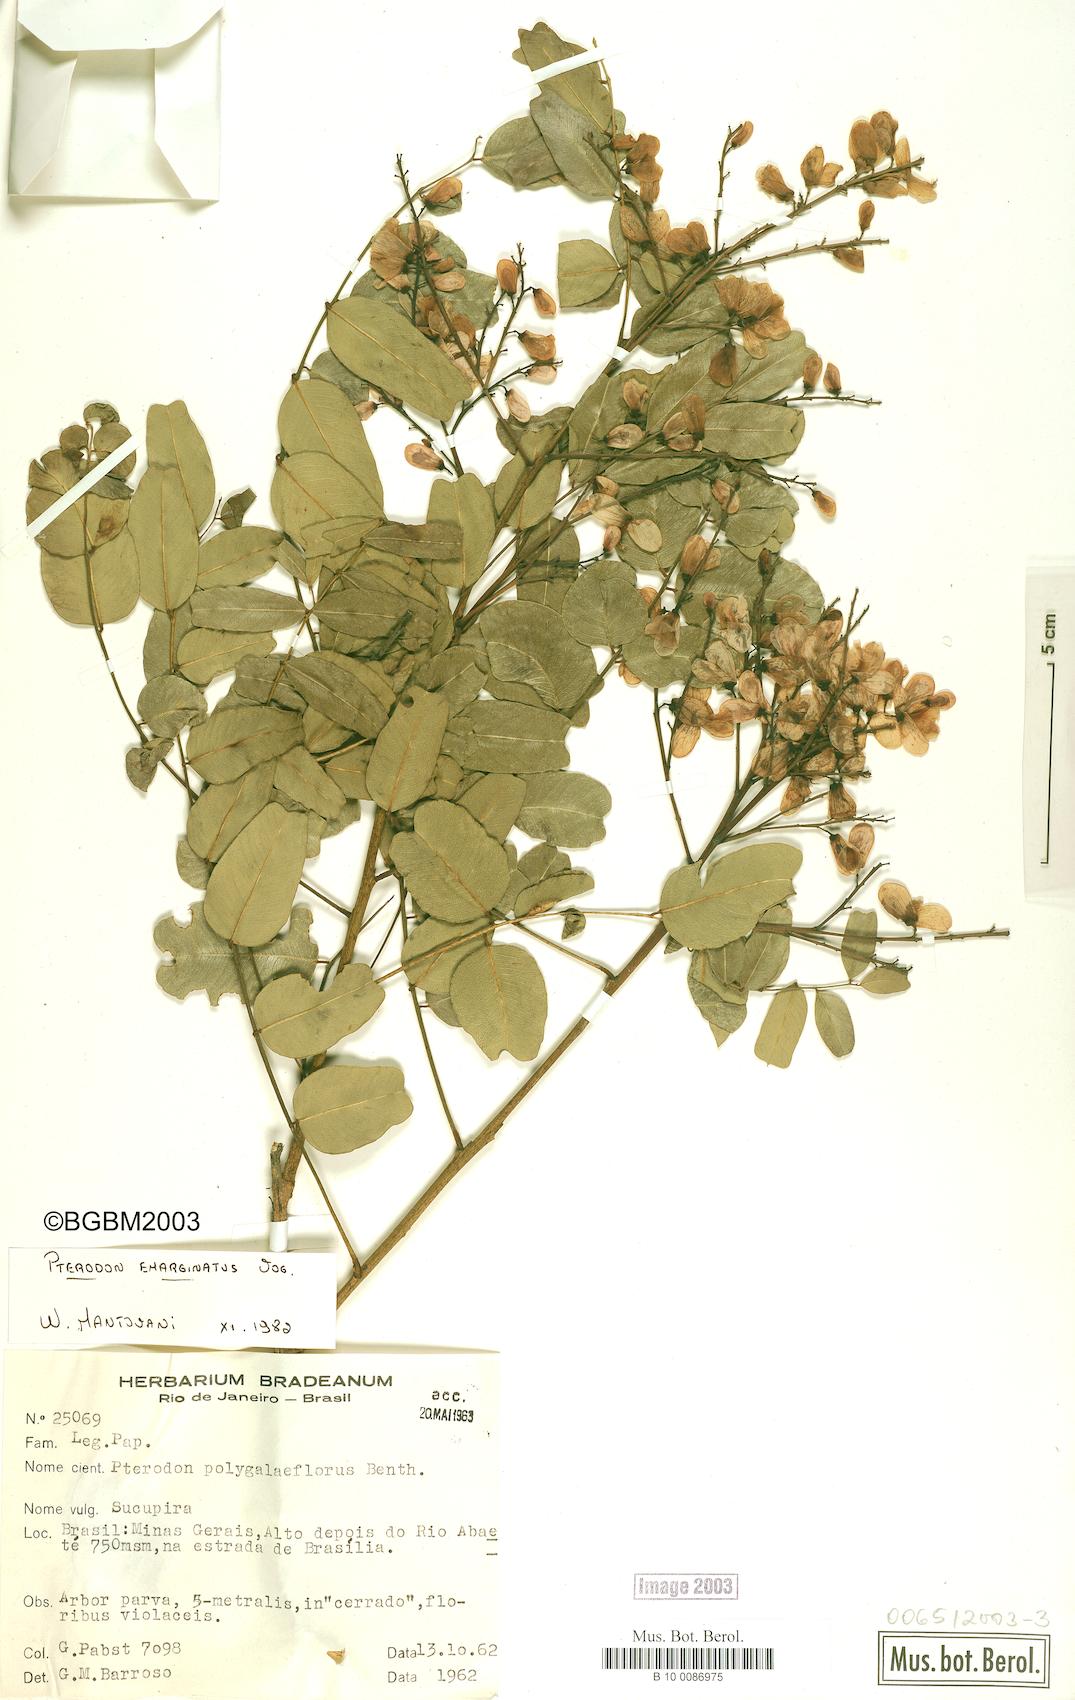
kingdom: Plantae
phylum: Tracheophyta
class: Magnoliopsida
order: Fabales
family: Fabaceae
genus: Pterodon
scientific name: Pterodon emarginatus
